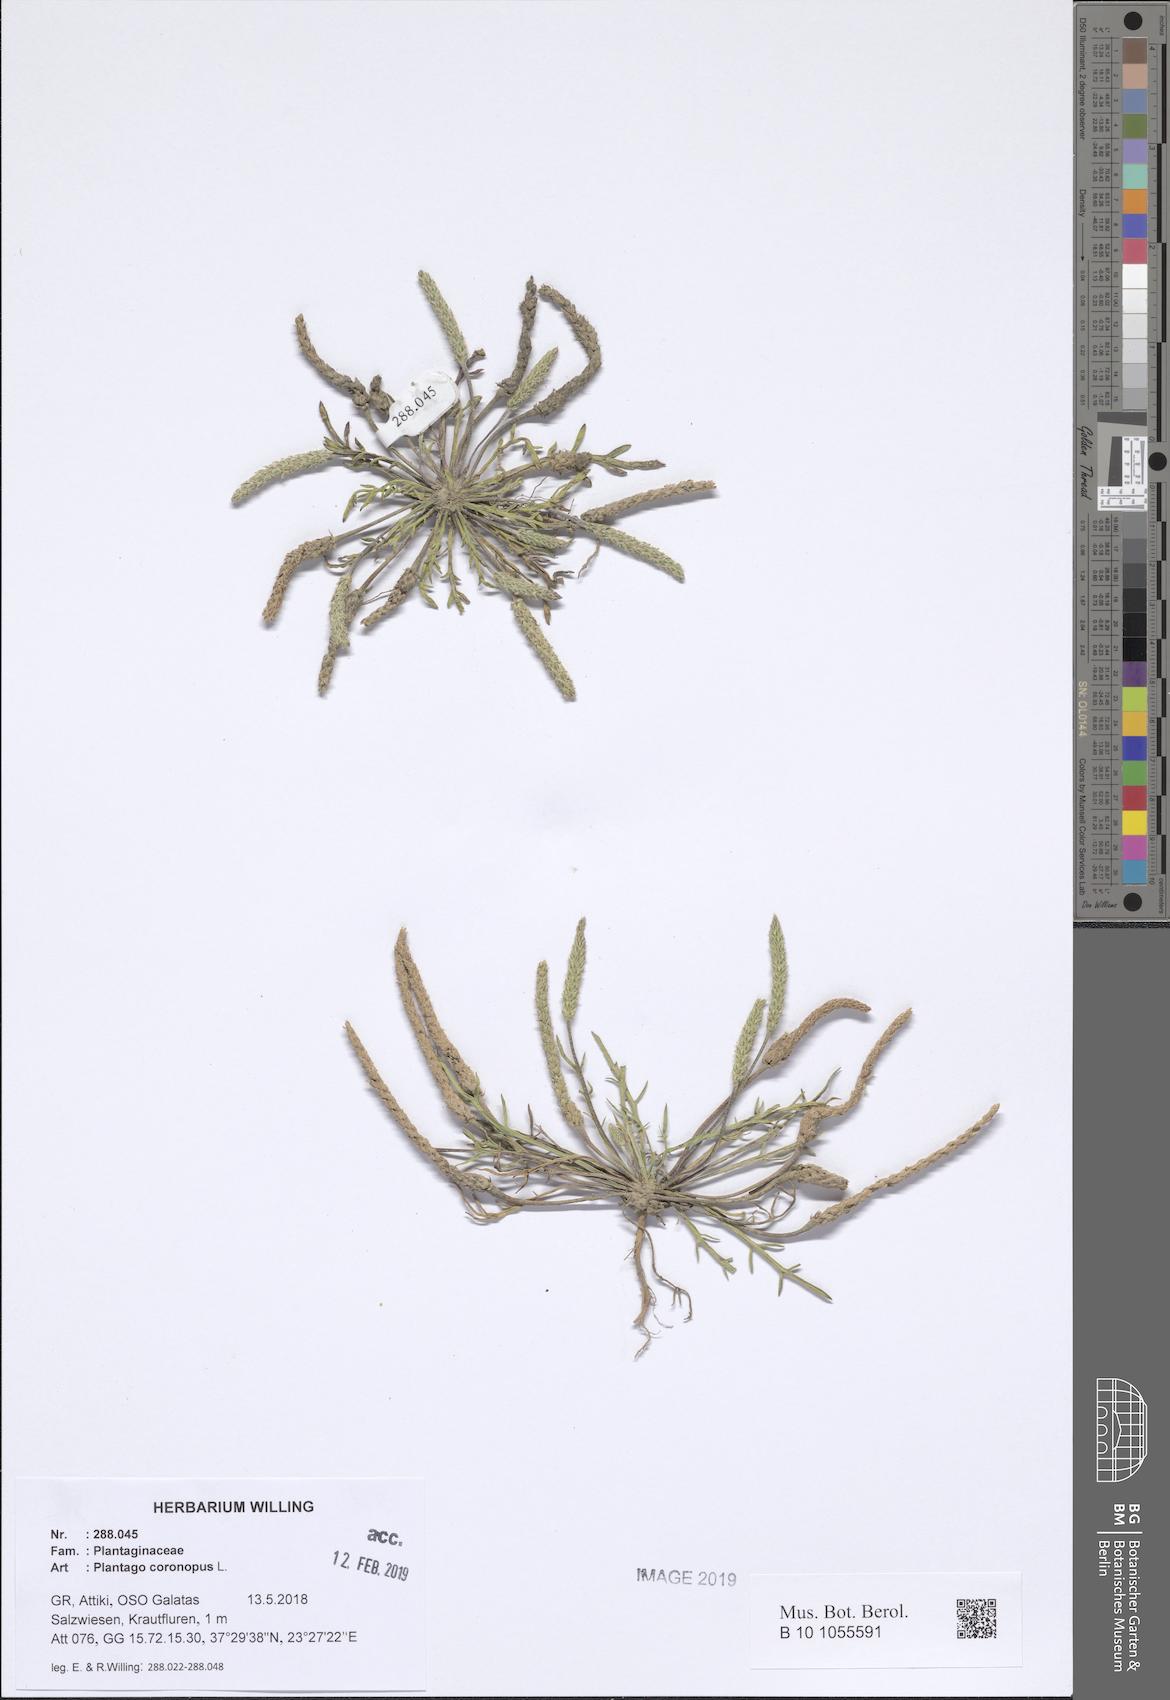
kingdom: Plantae
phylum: Tracheophyta
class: Magnoliopsida
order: Lamiales
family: Plantaginaceae
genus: Plantago
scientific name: Plantago coronopus
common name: Buck's-horn plantain
